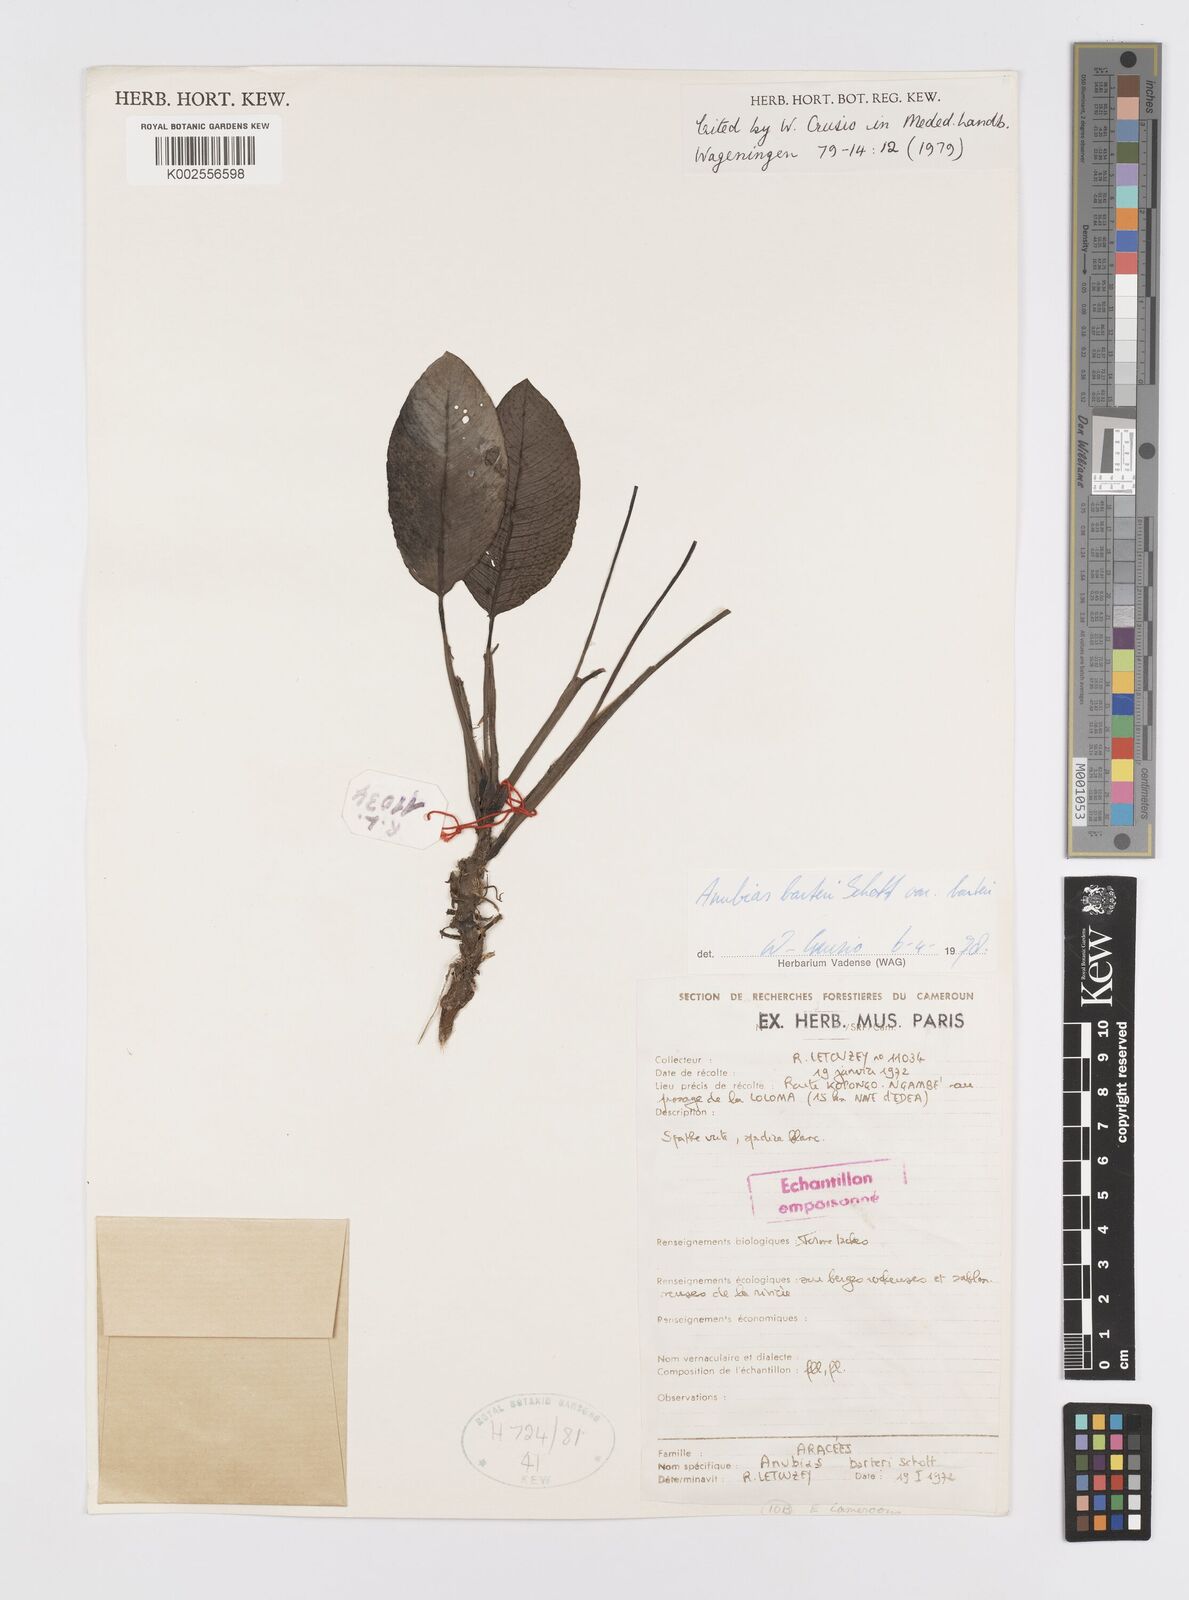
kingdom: Plantae
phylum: Tracheophyta
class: Liliopsida
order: Alismatales
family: Araceae
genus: Anubias
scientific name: Anubias barteri
